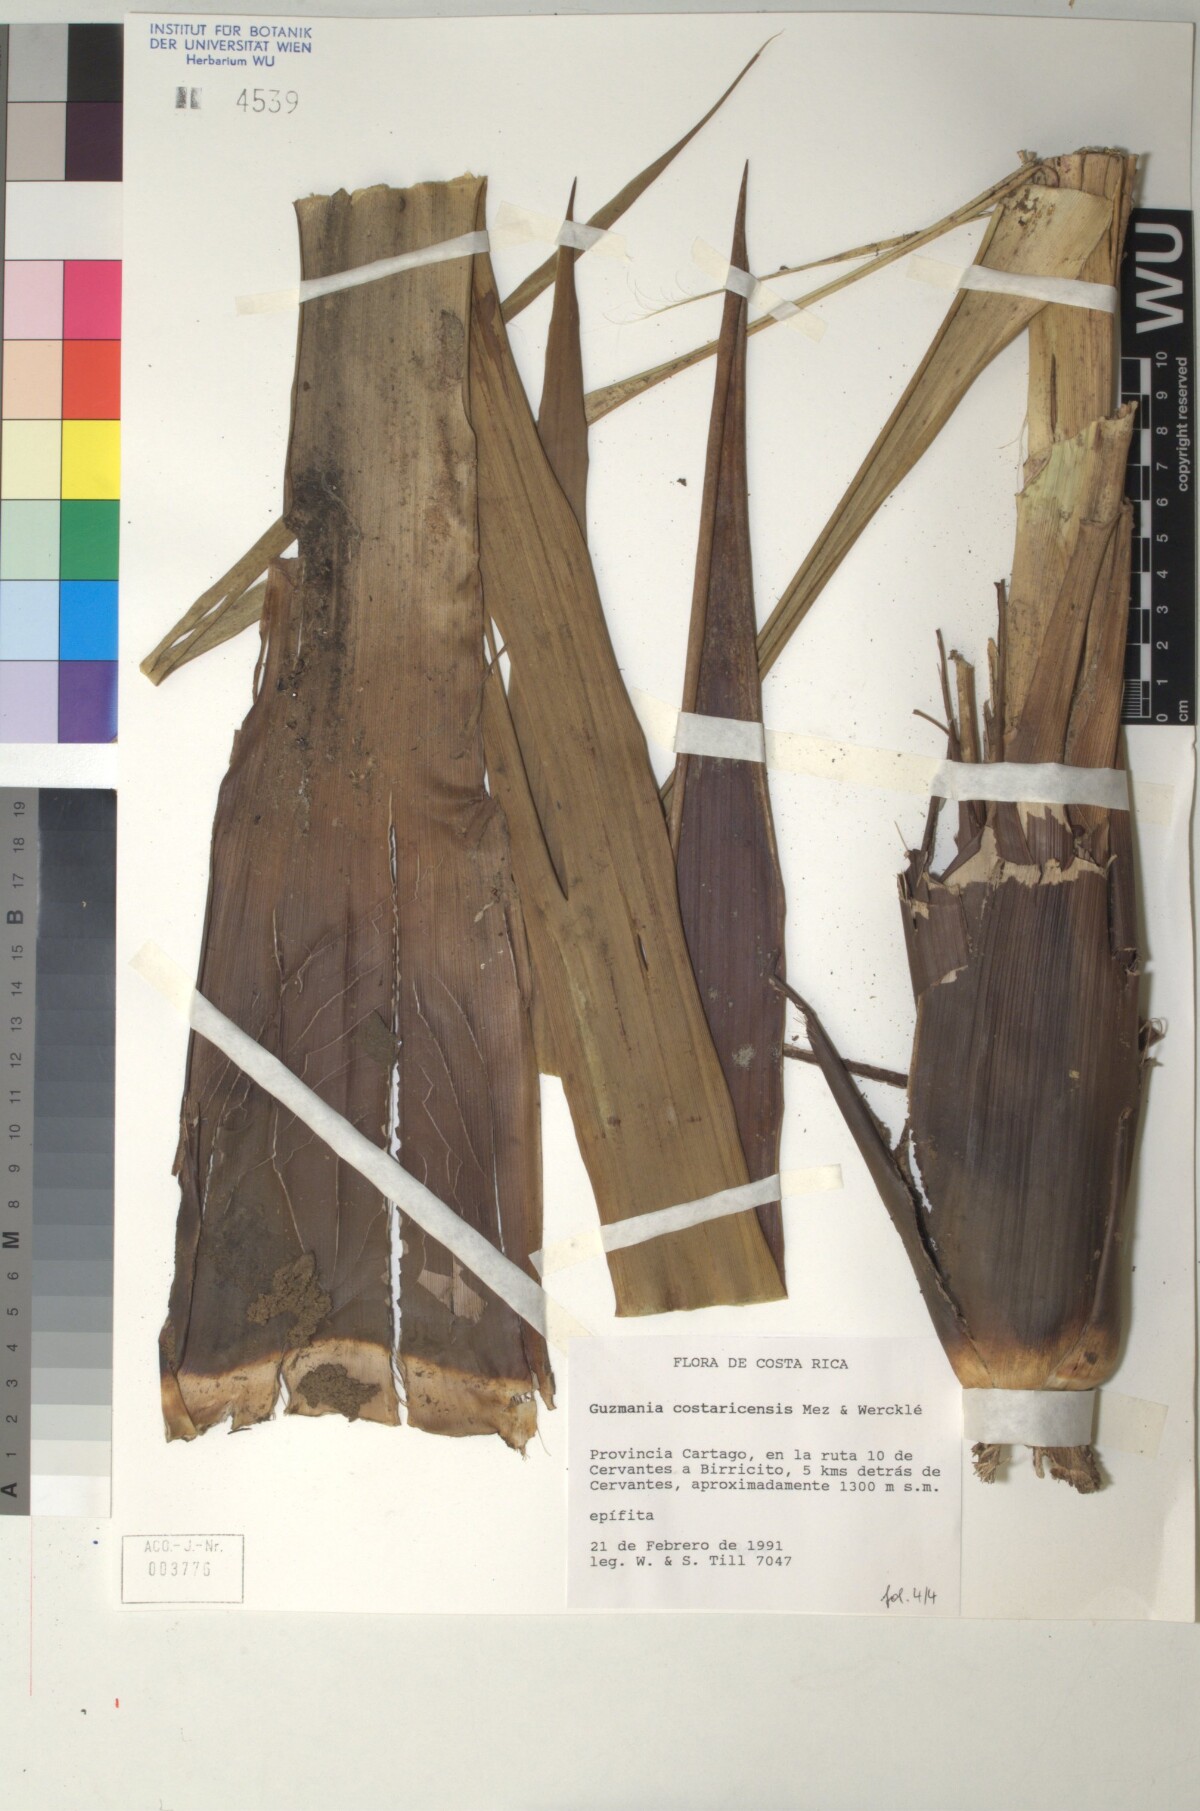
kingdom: Plantae
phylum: Tracheophyta
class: Liliopsida
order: Poales
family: Bromeliaceae
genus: Guzmania
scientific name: Guzmania condensata
